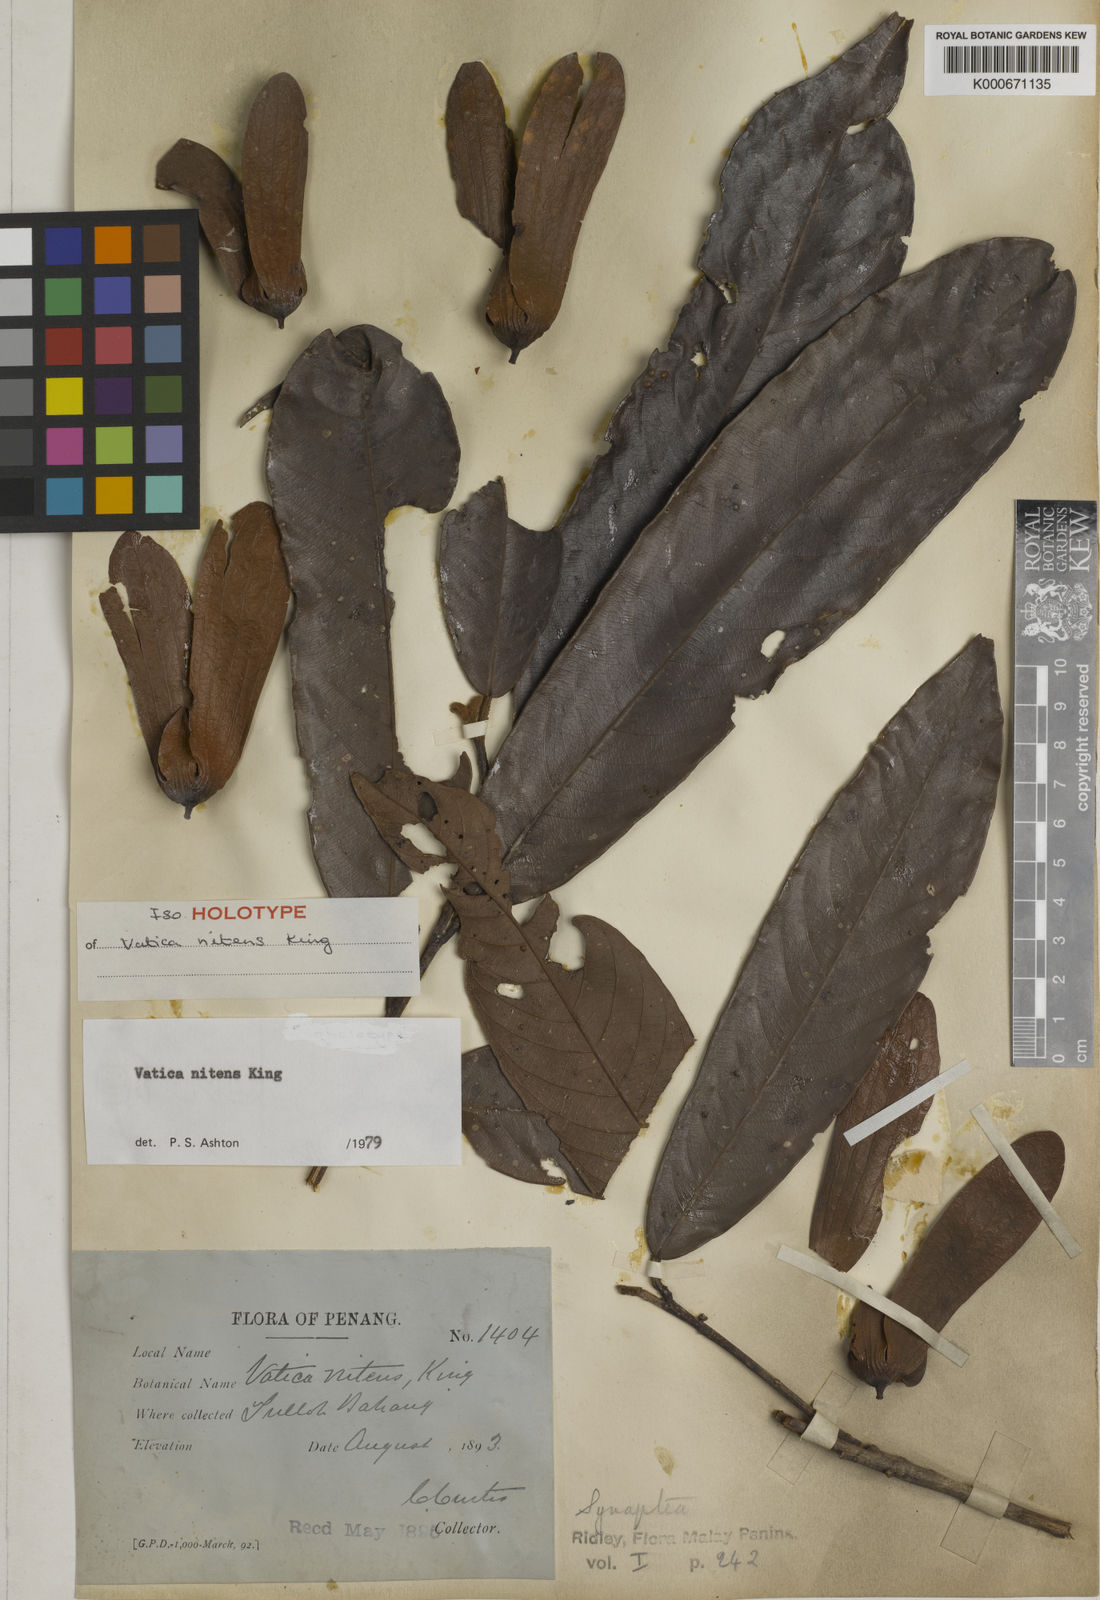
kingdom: Plantae
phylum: Tracheophyta
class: Magnoliopsida
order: Malvales
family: Dipterocarpaceae
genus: Vatica
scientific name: Vatica nitens
